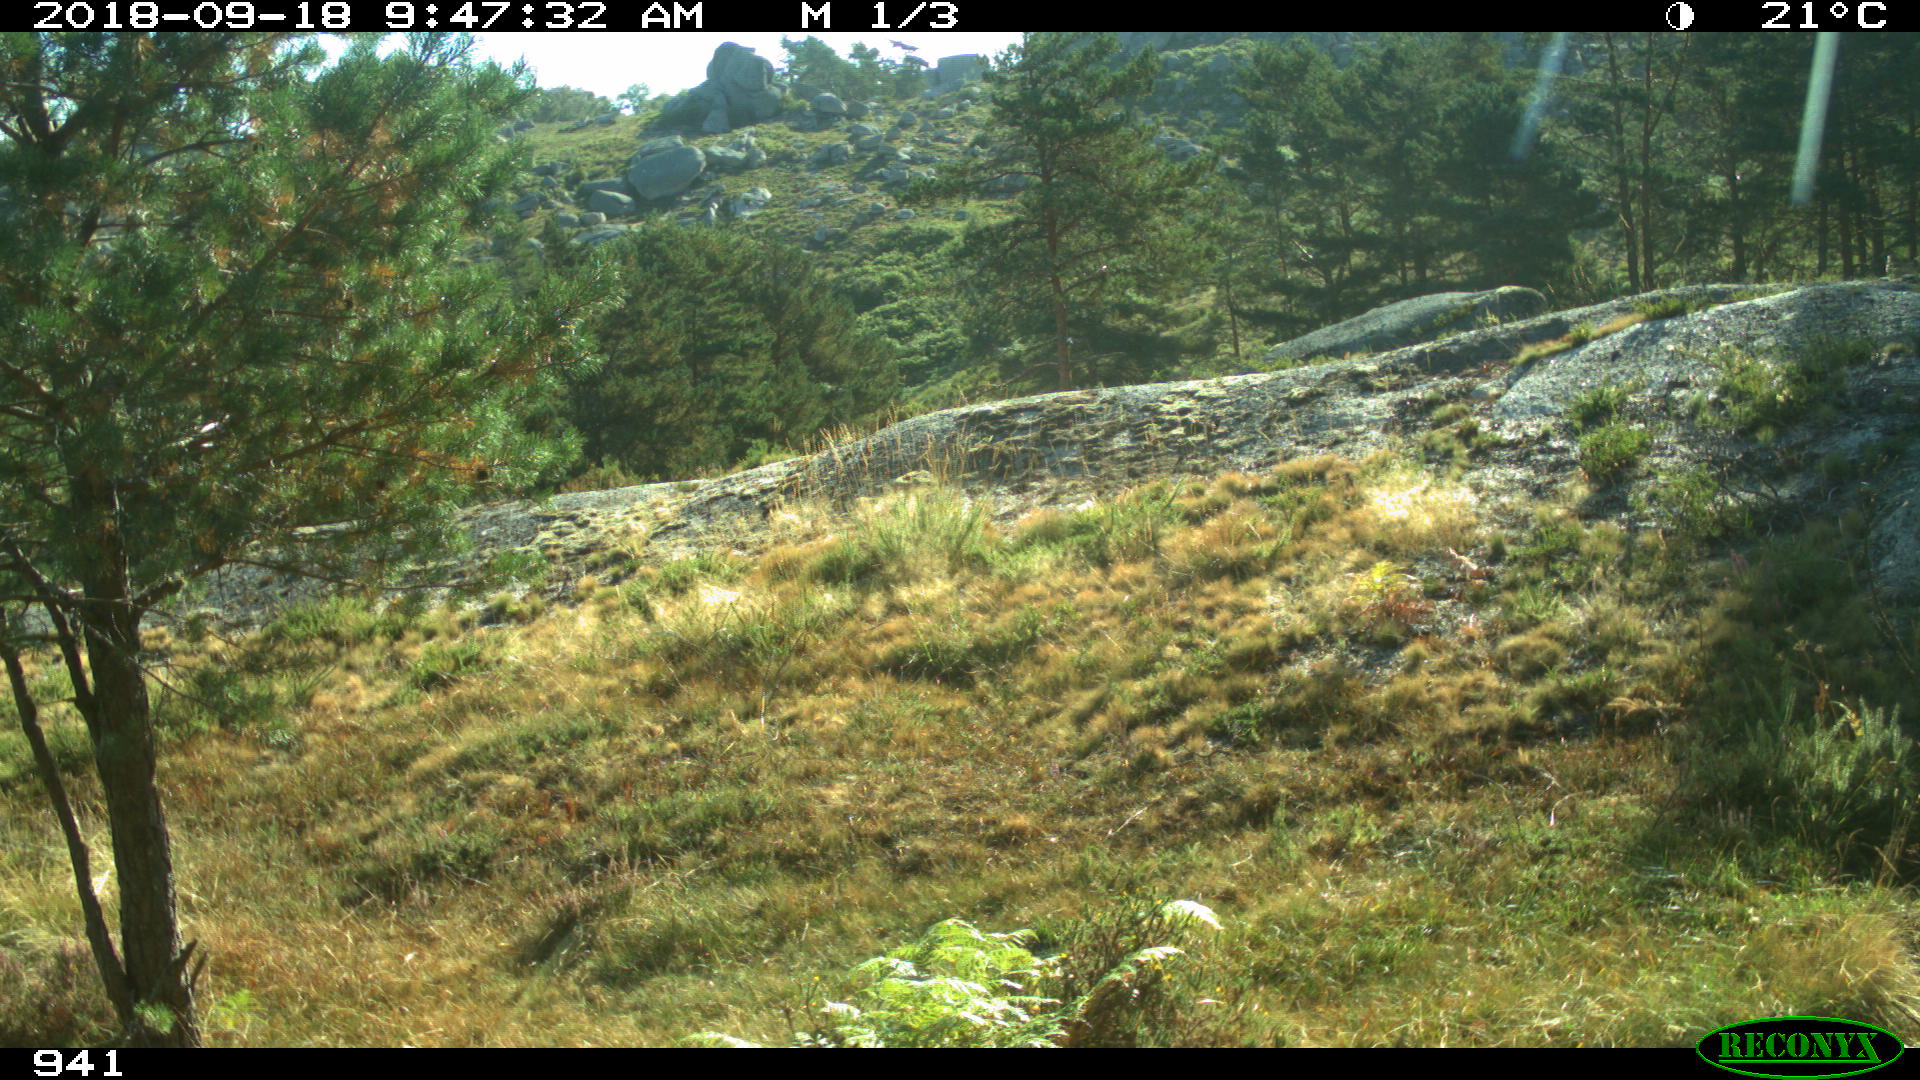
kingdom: Animalia
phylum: Chordata
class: Mammalia
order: Artiodactyla
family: Bovidae
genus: Bos
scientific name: Bos taurus
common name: Domesticated cattle
